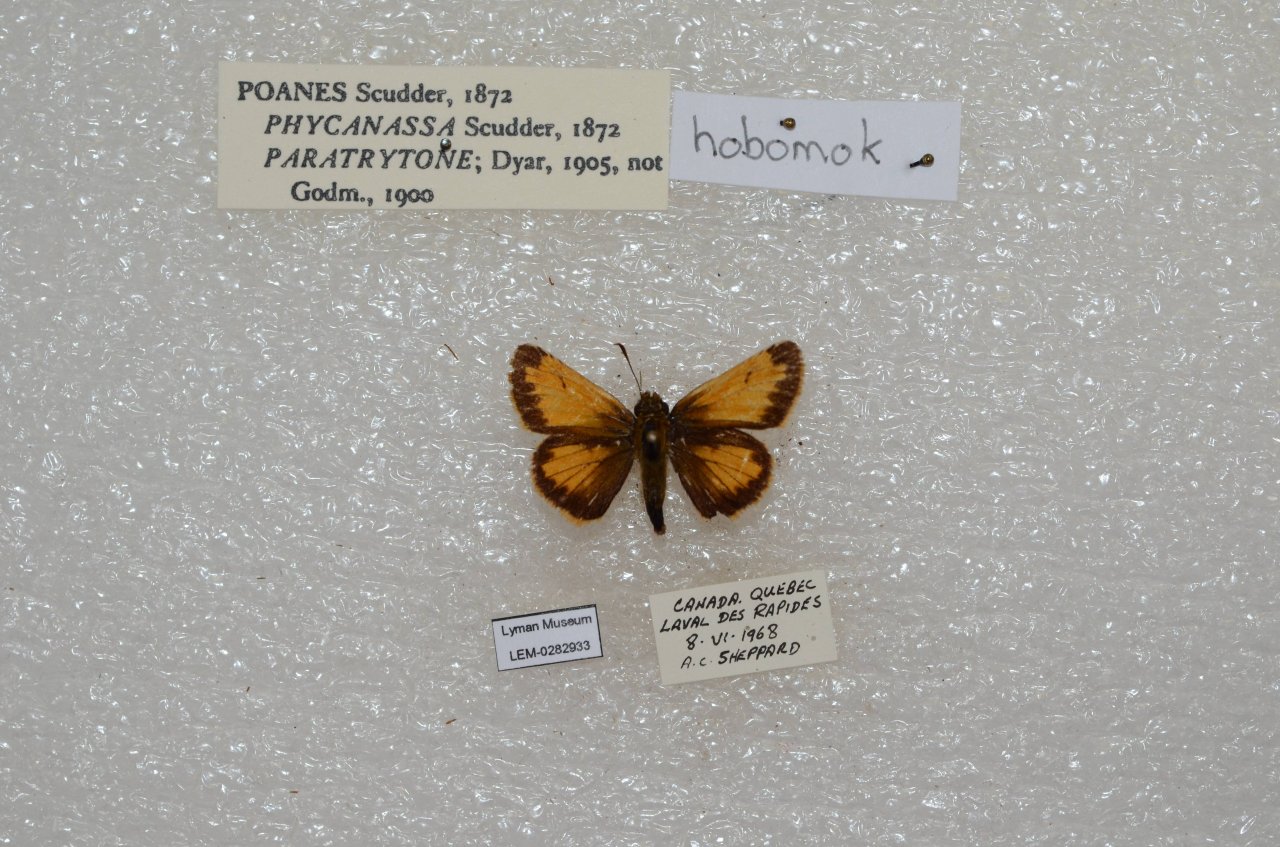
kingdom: Animalia
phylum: Arthropoda
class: Insecta
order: Lepidoptera
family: Hesperiidae
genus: Lon
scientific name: Lon hobomok
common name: Hobomok Skipper
